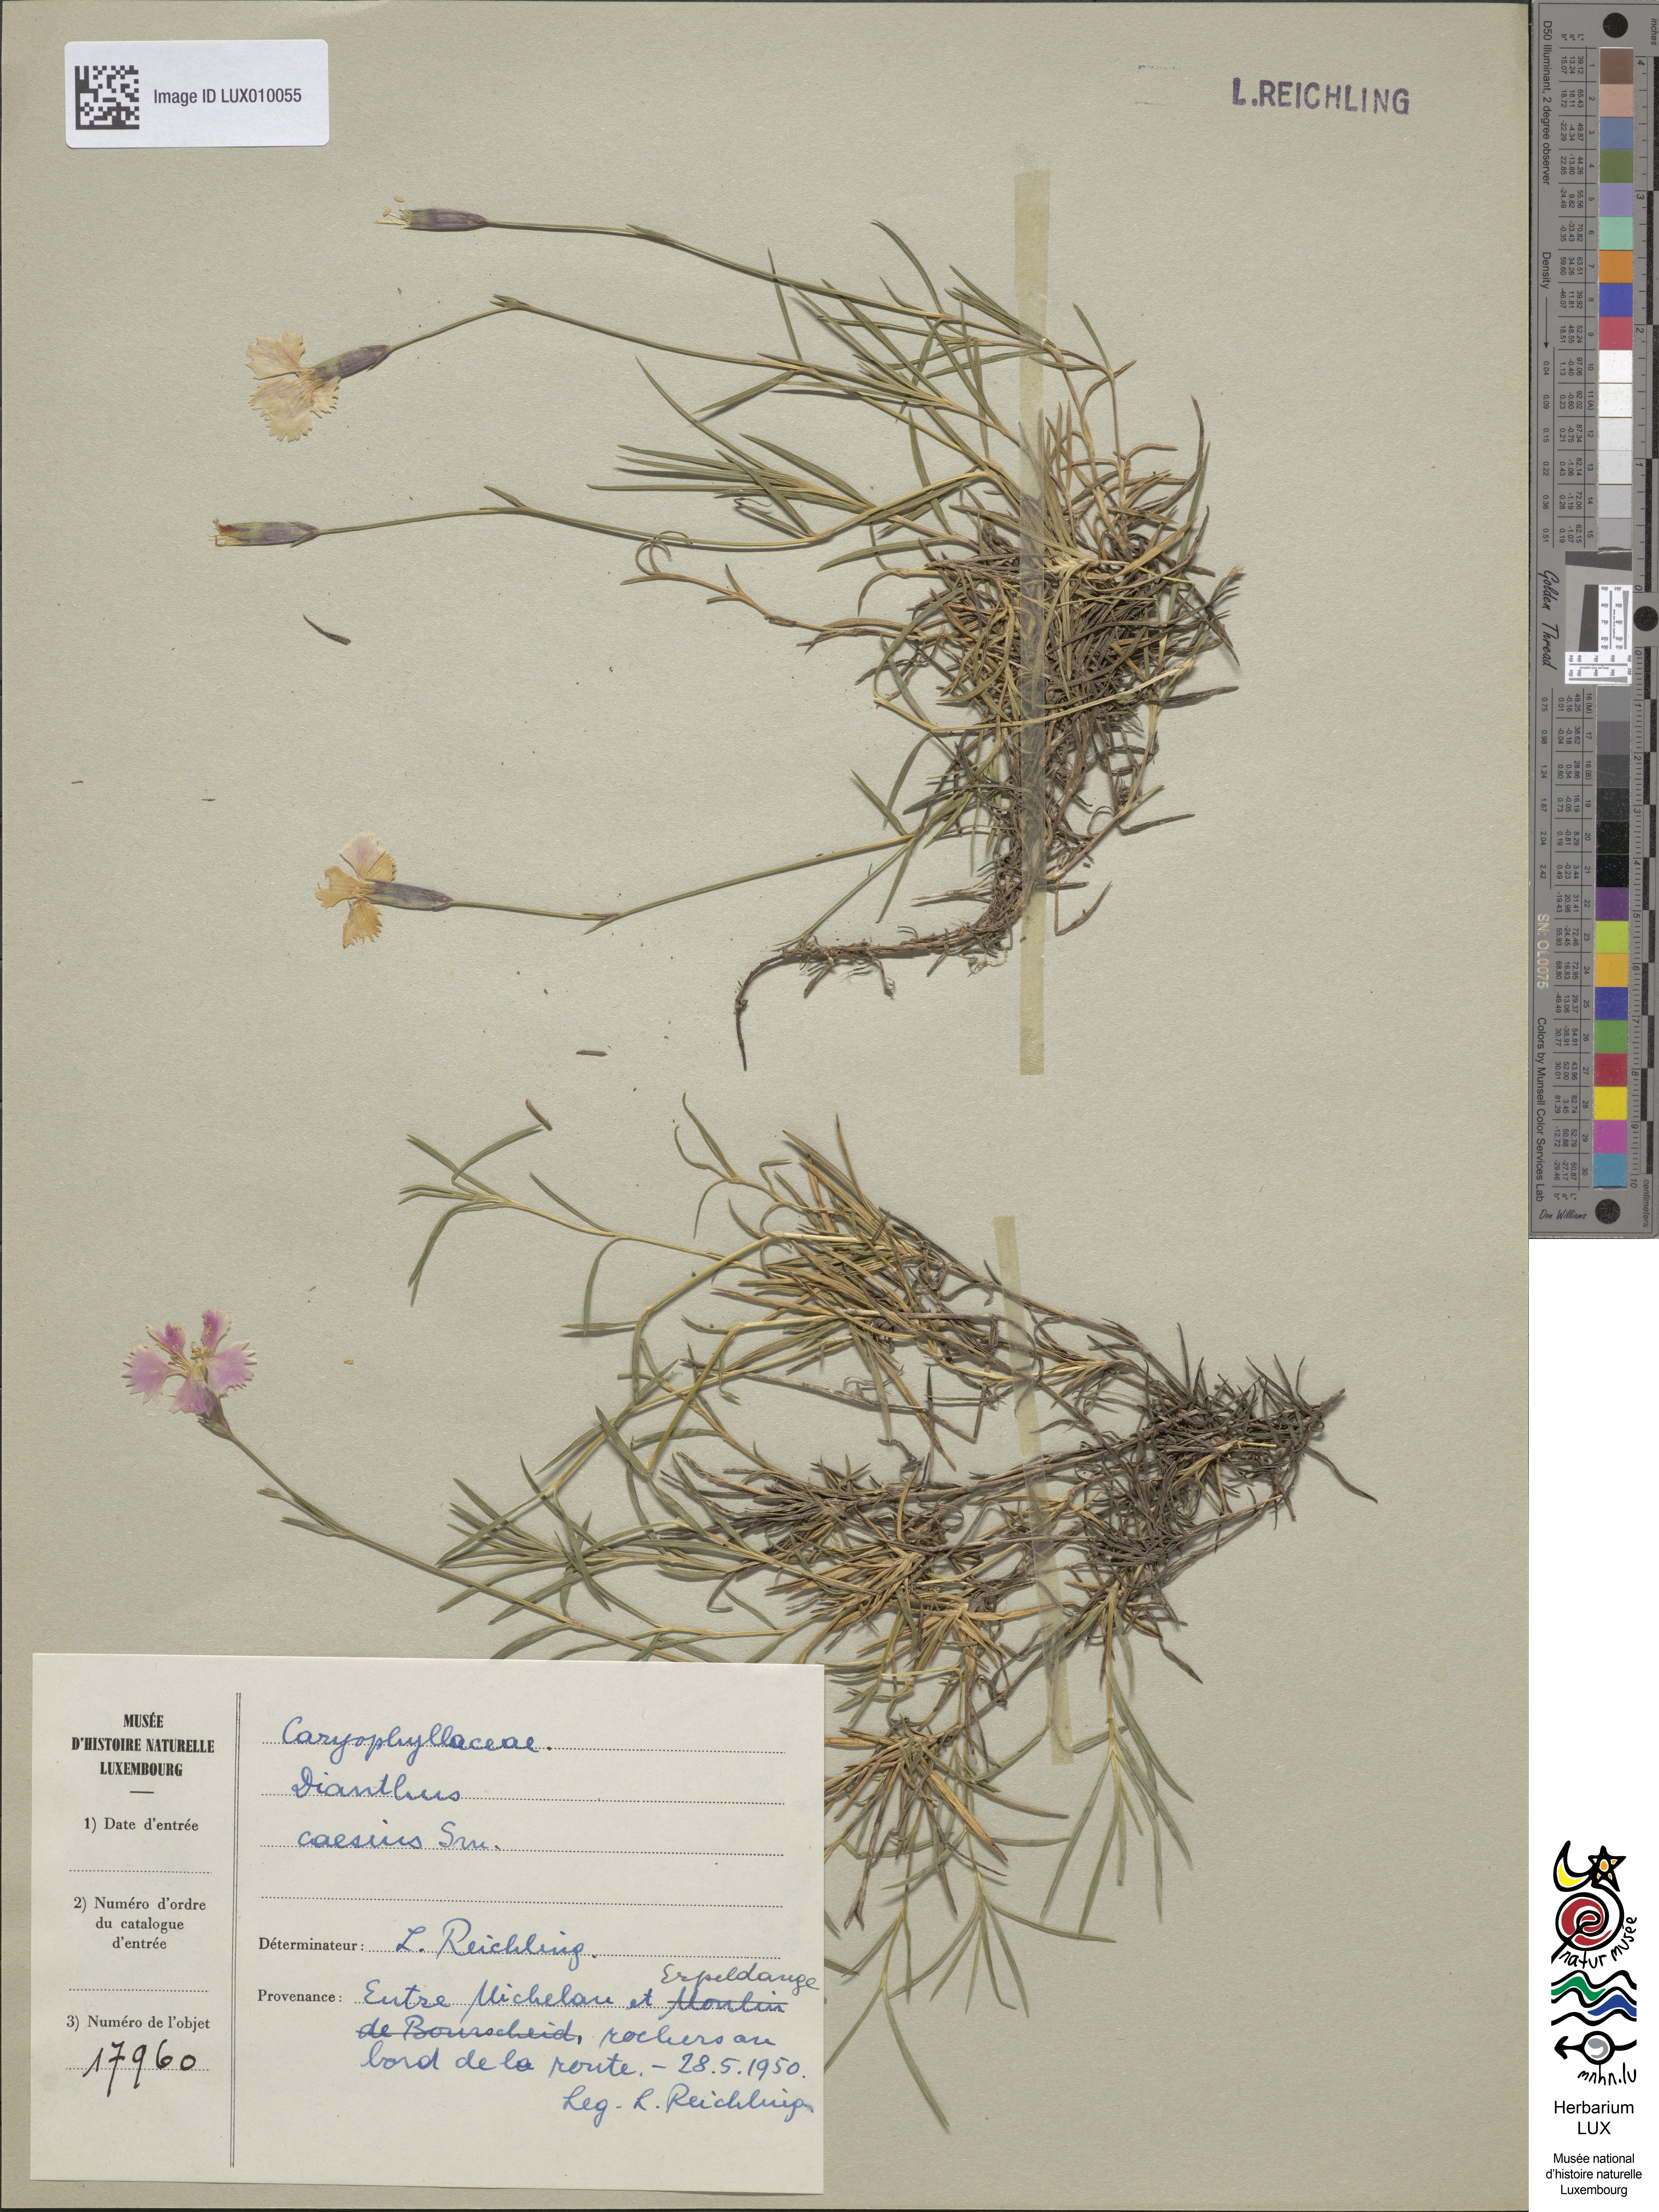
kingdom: Plantae
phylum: Tracheophyta
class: Magnoliopsida
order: Caryophyllales
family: Caryophyllaceae
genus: Dianthus
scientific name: Dianthus gratianopolitanus
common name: Cheddar pink
